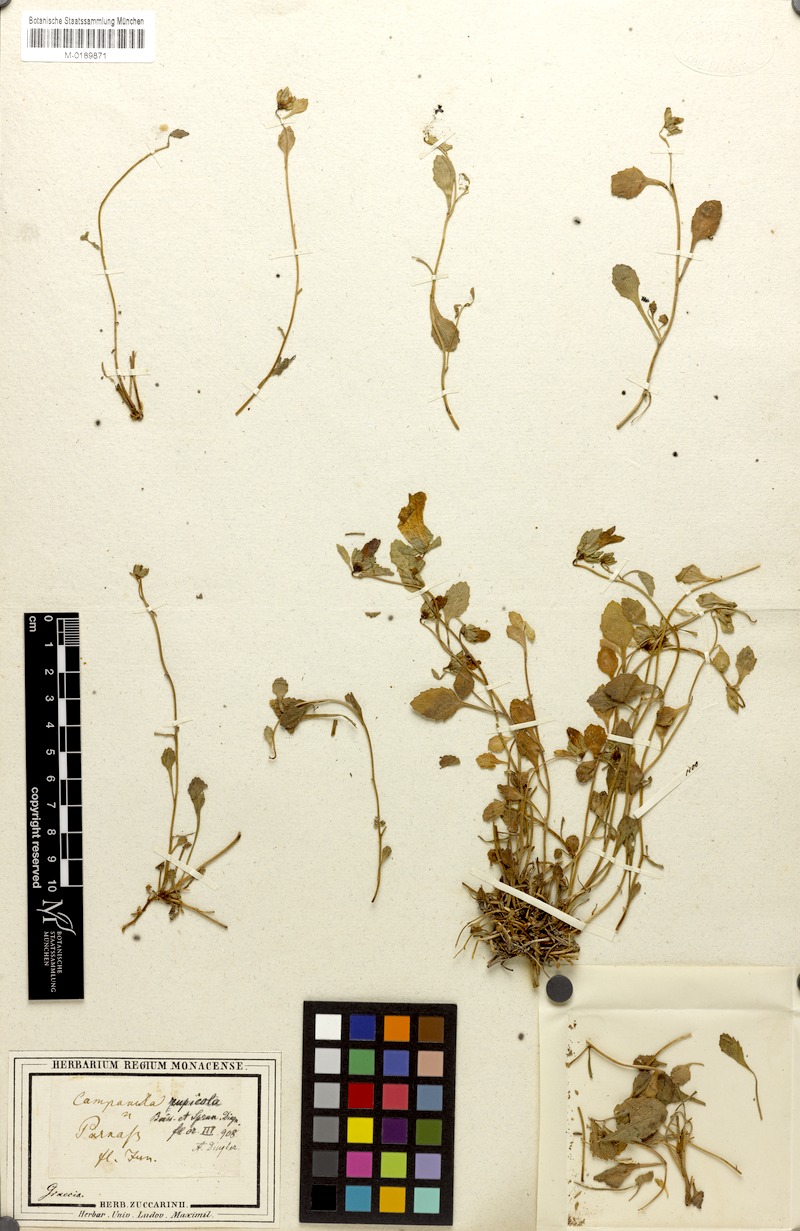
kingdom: Plantae
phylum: Tracheophyta
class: Magnoliopsida
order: Asterales
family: Campanulaceae
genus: Campanula
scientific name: Campanula rupicola
